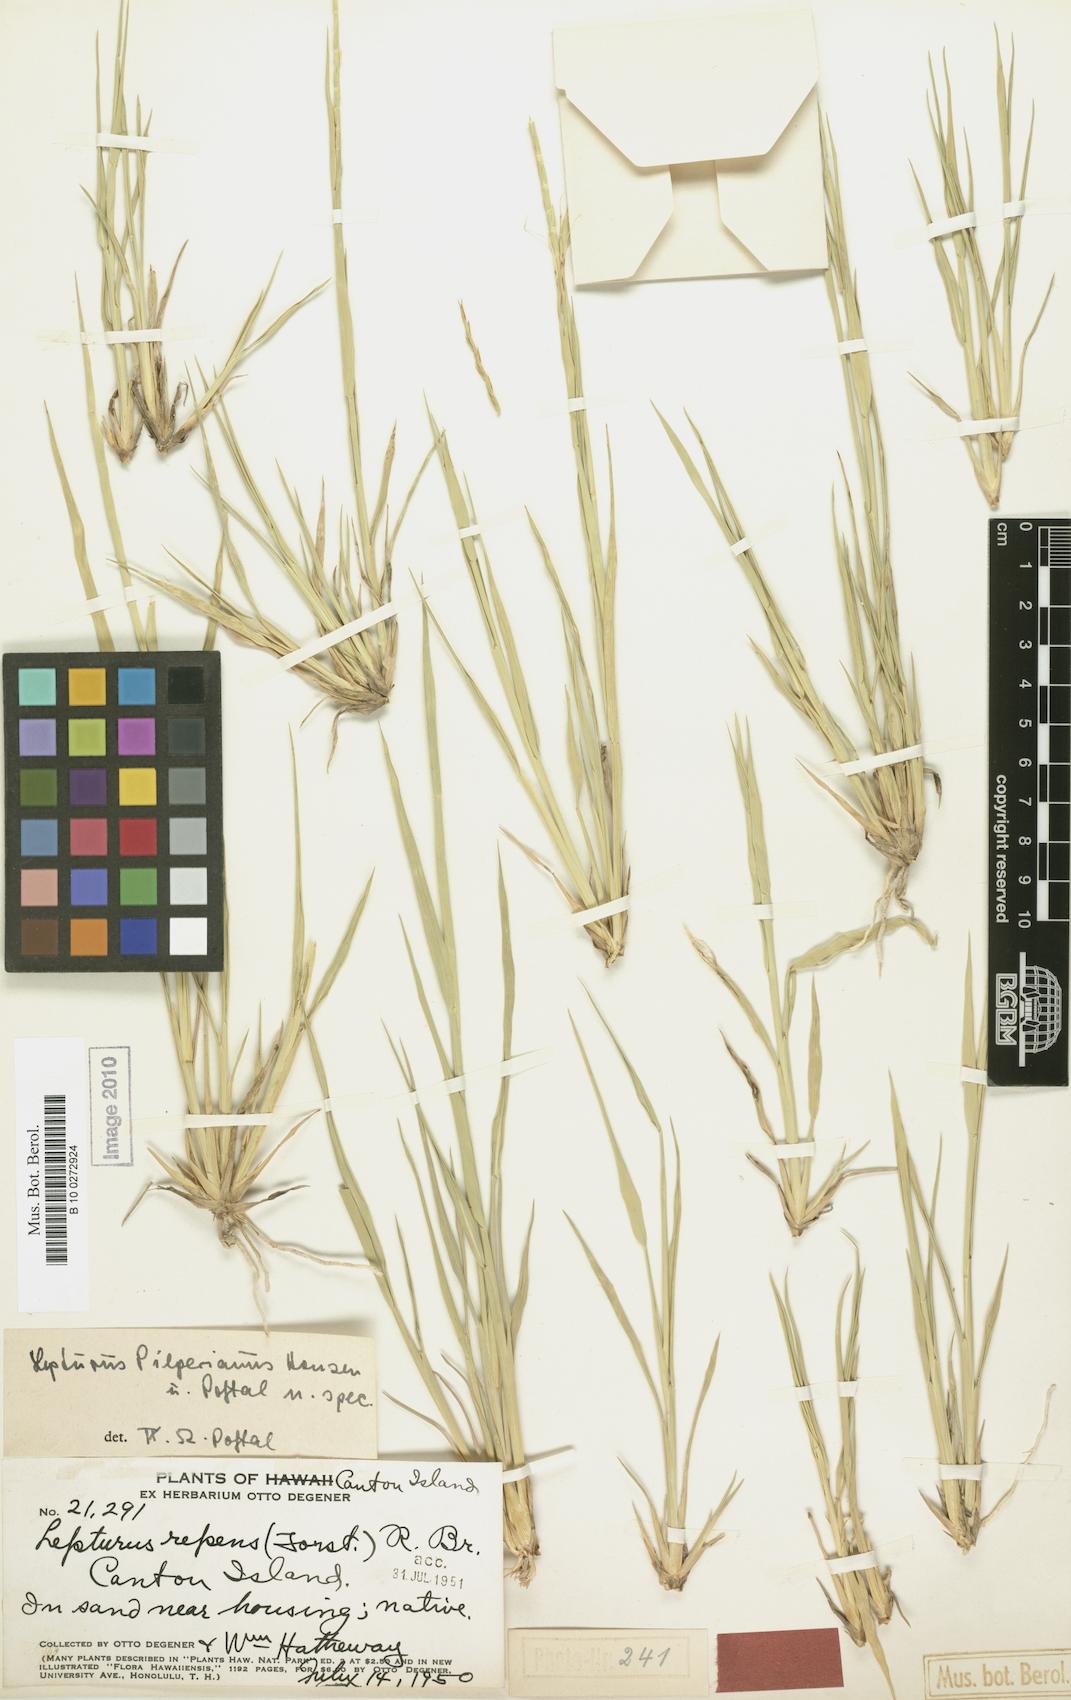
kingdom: Plantae
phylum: Tracheophyta
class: Liliopsida
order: Poales
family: Poaceae
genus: Lepturus
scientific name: Lepturus repens
